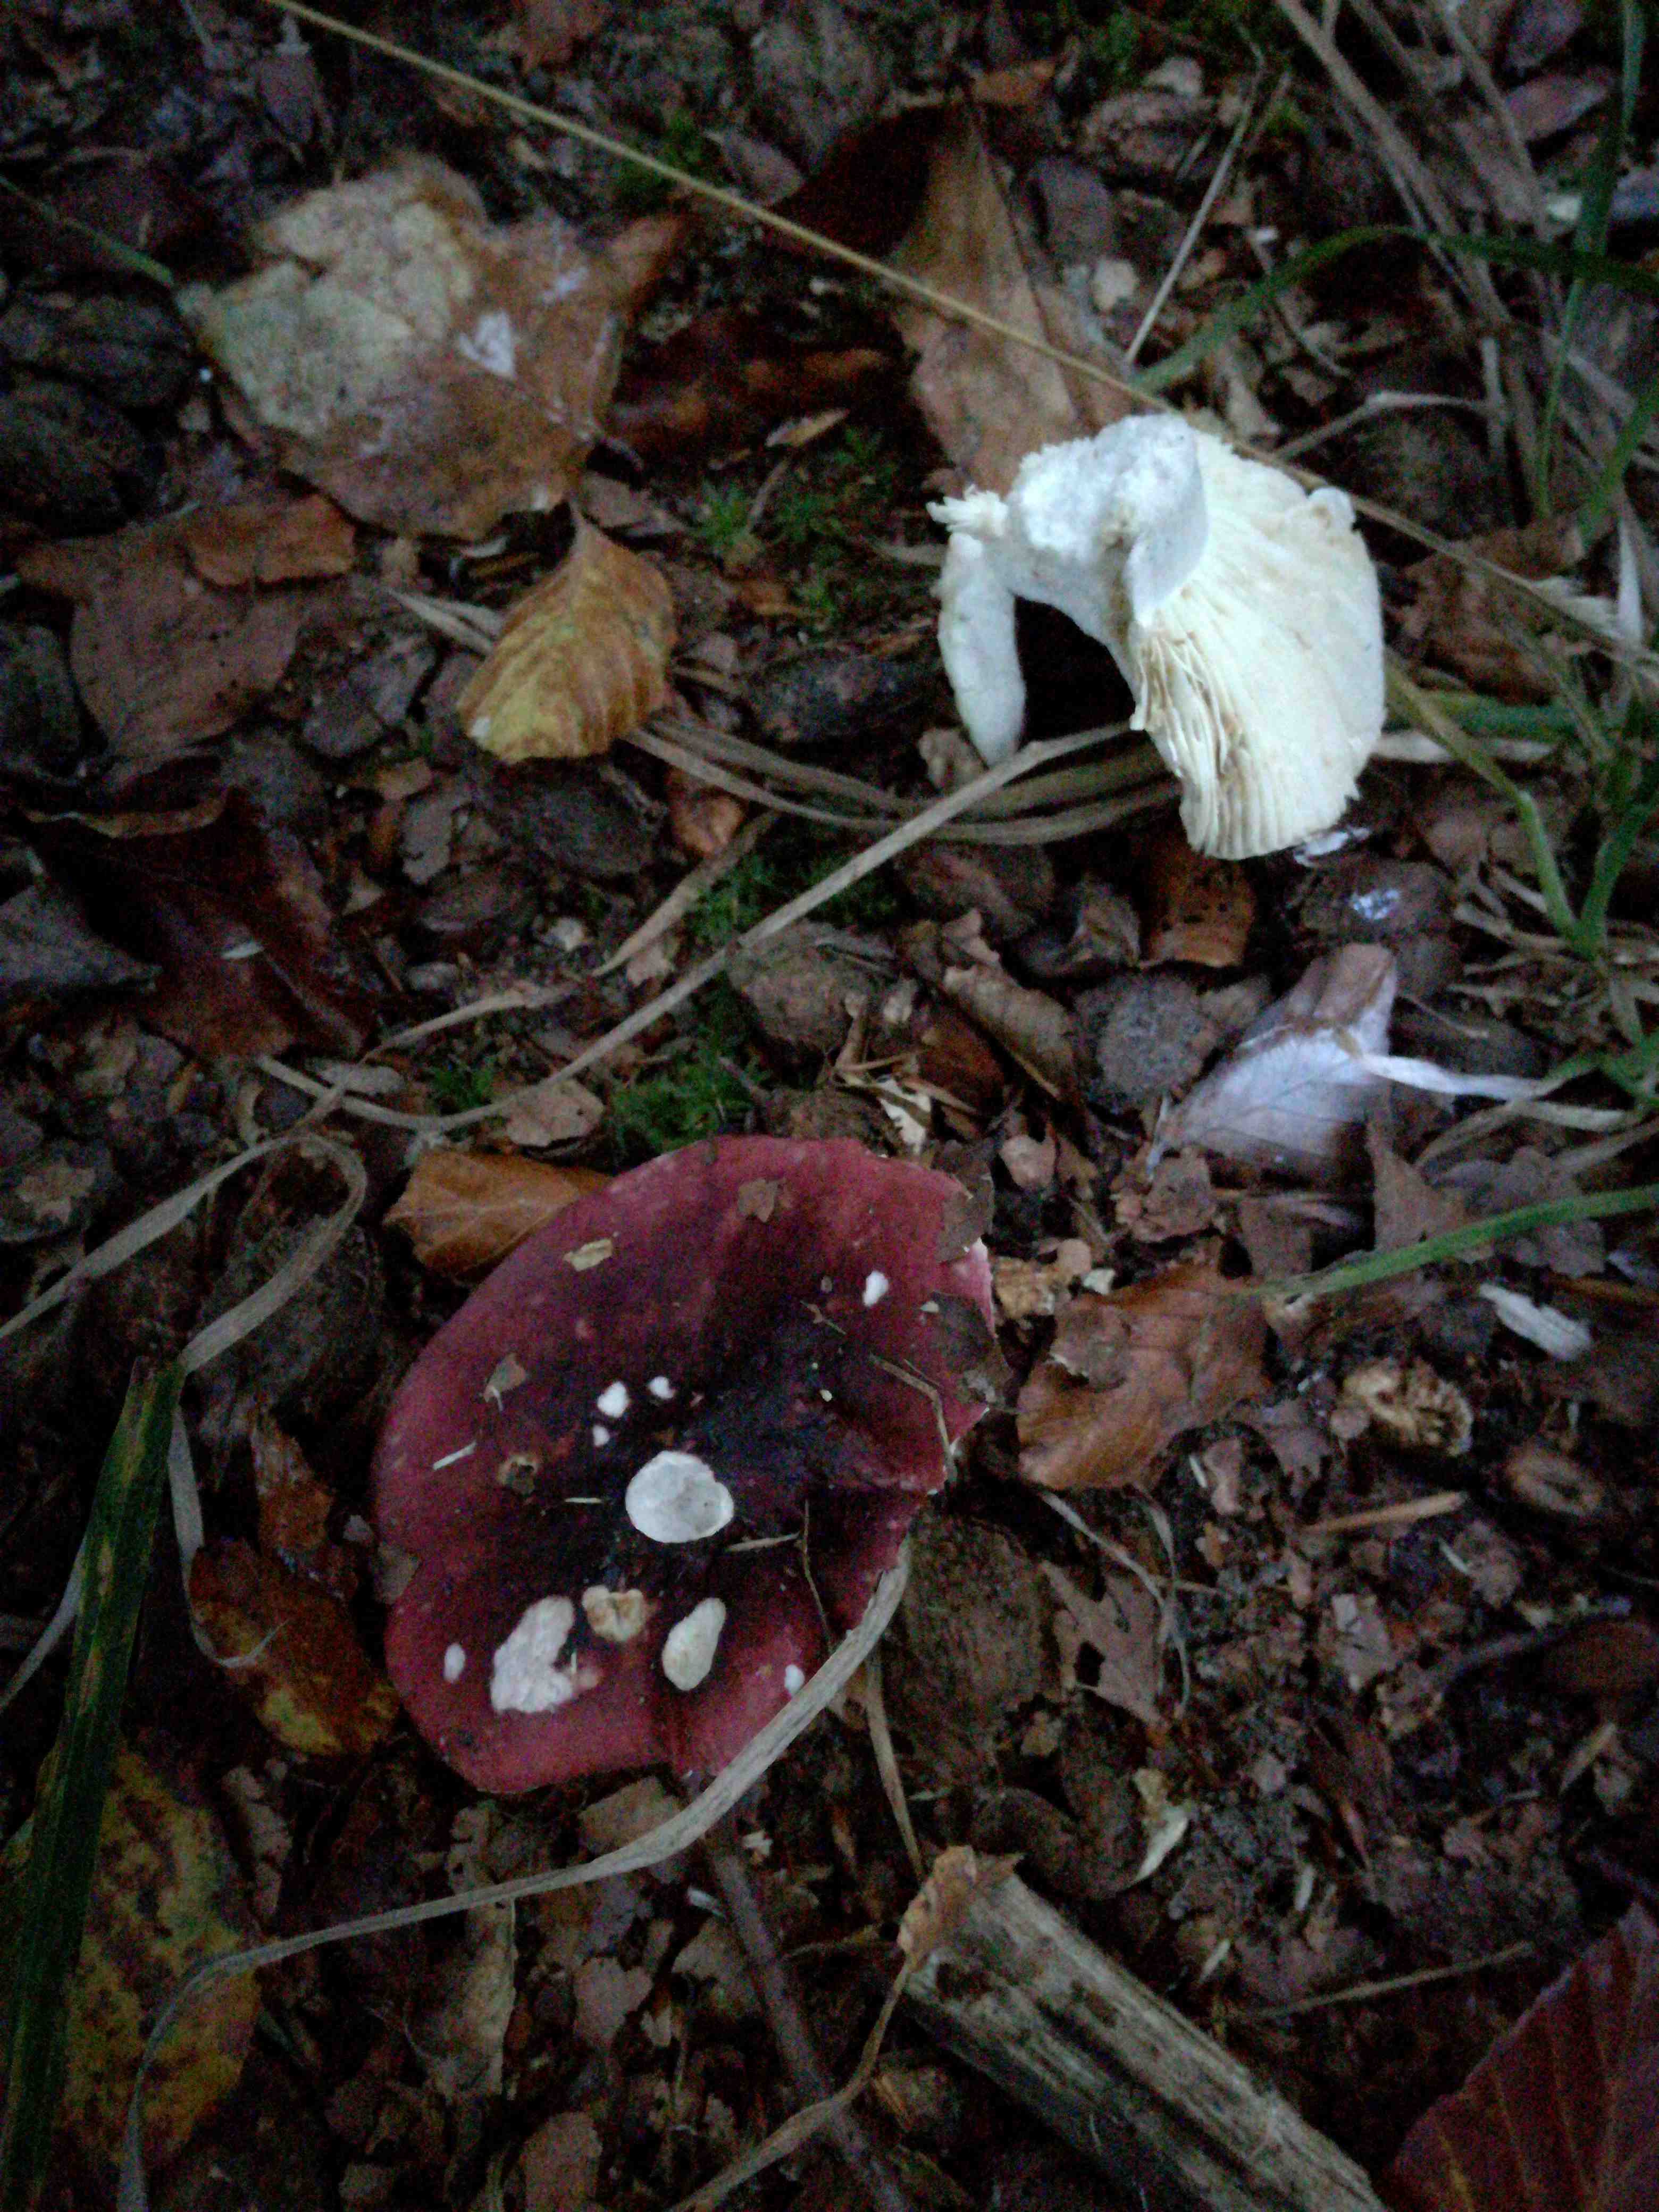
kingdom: Fungi
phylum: Basidiomycota
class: Agaricomycetes
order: Russulales
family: Russulaceae
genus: Russula
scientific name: Russula
